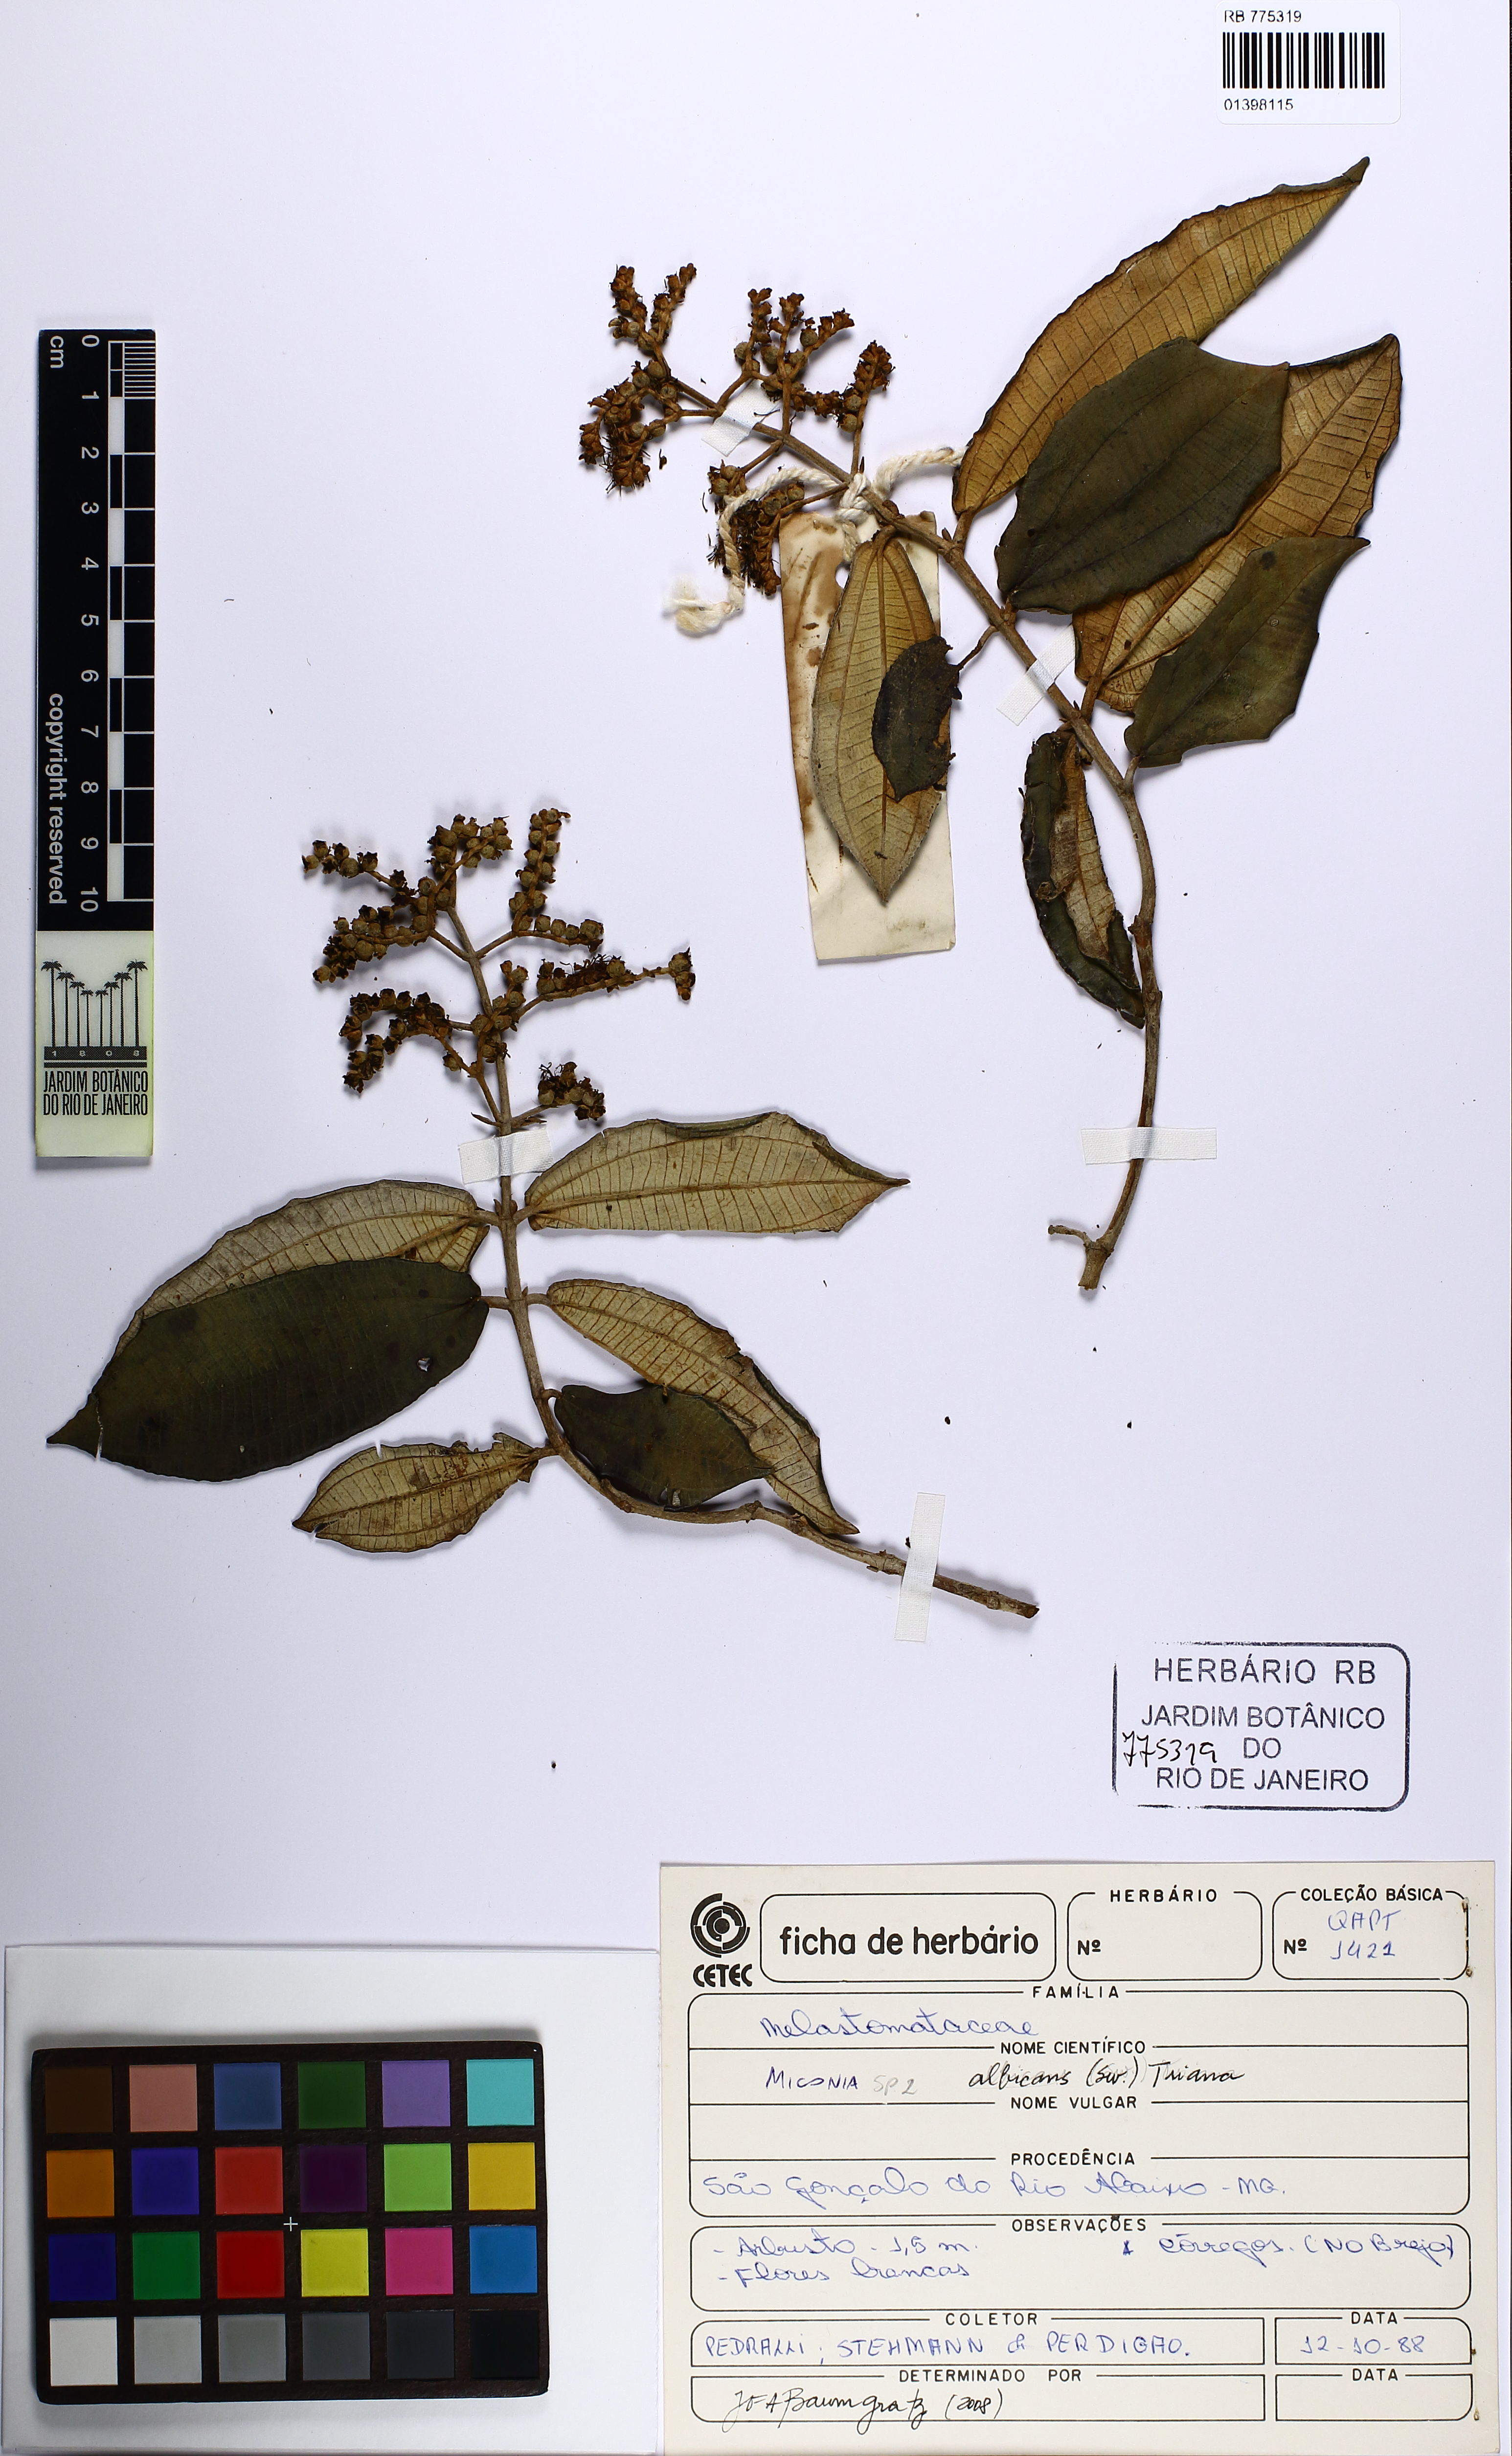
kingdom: Plantae
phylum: Tracheophyta
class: Magnoliopsida
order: Myrtales
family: Melastomataceae
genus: Miconia
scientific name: Miconia albicans
